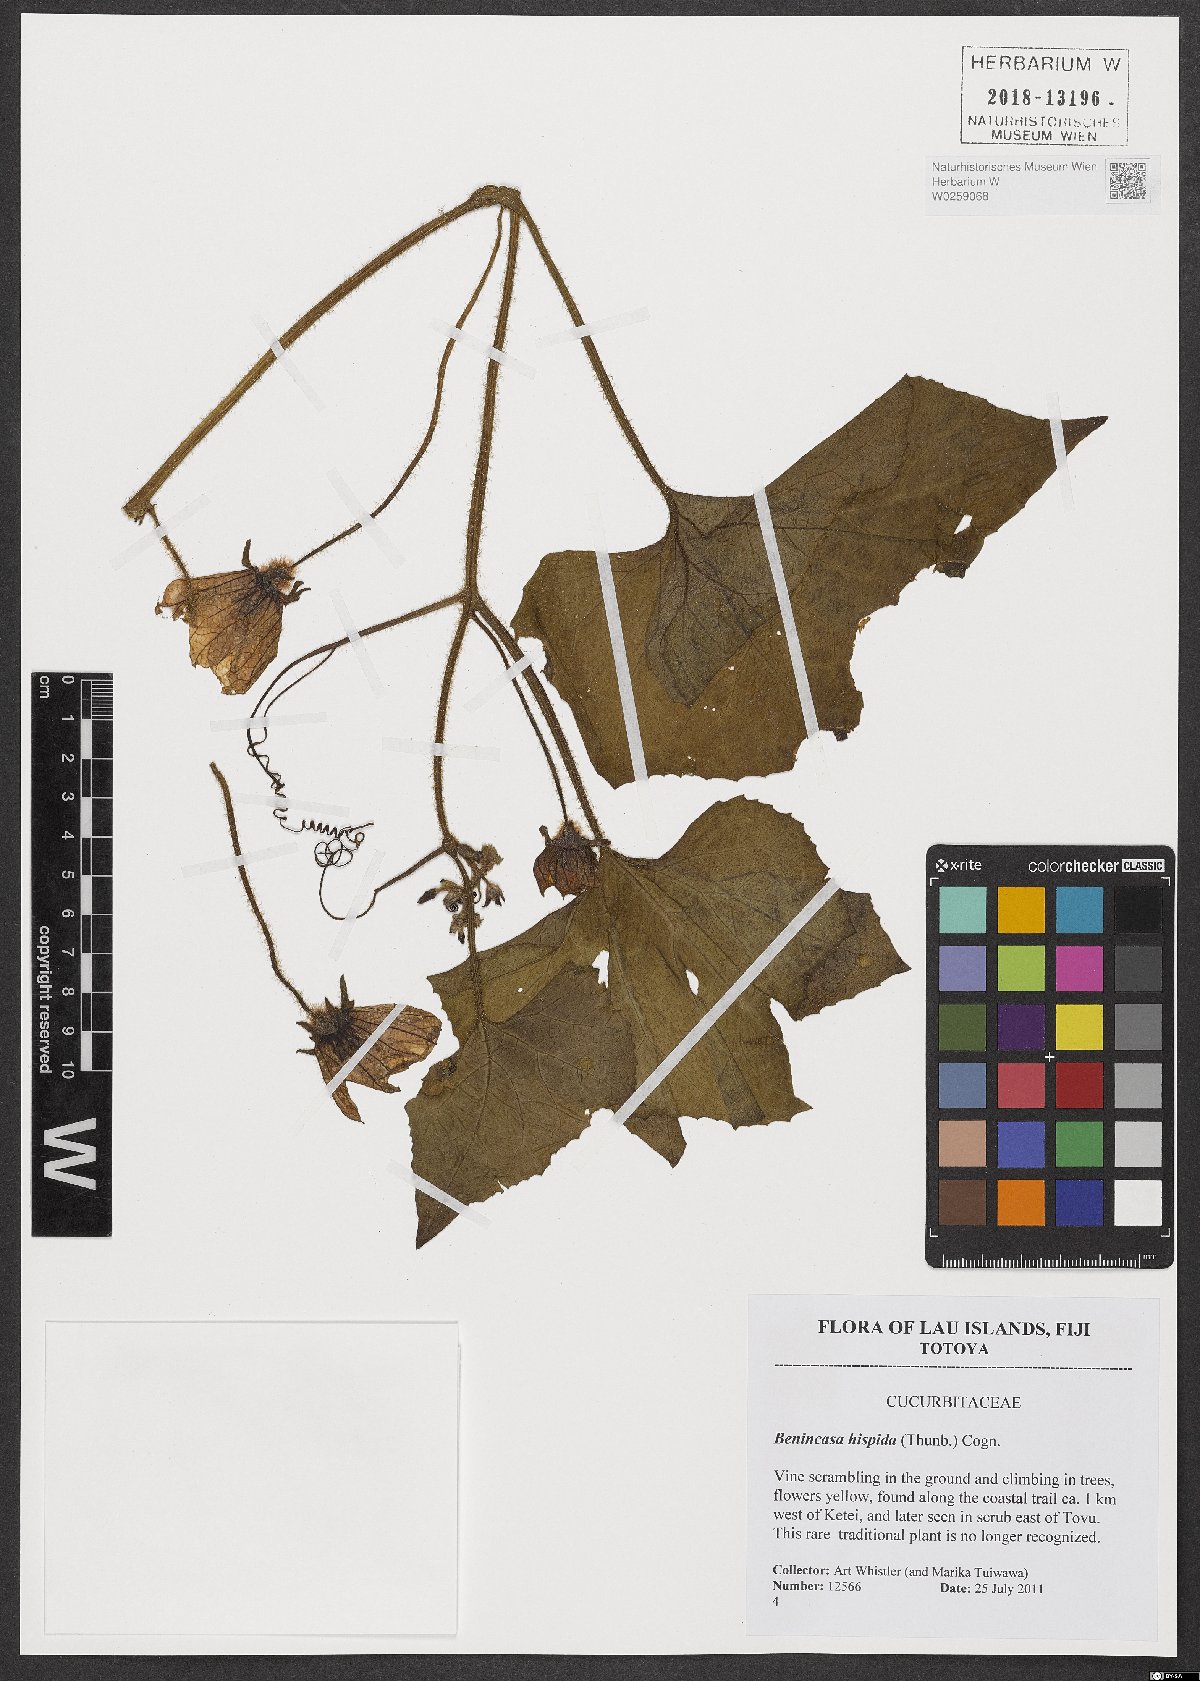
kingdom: Plantae
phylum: Tracheophyta
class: Magnoliopsida
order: Cucurbitales
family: Cucurbitaceae
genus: Benincasa
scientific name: Benincasa hispida
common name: Chinese-watermelon
